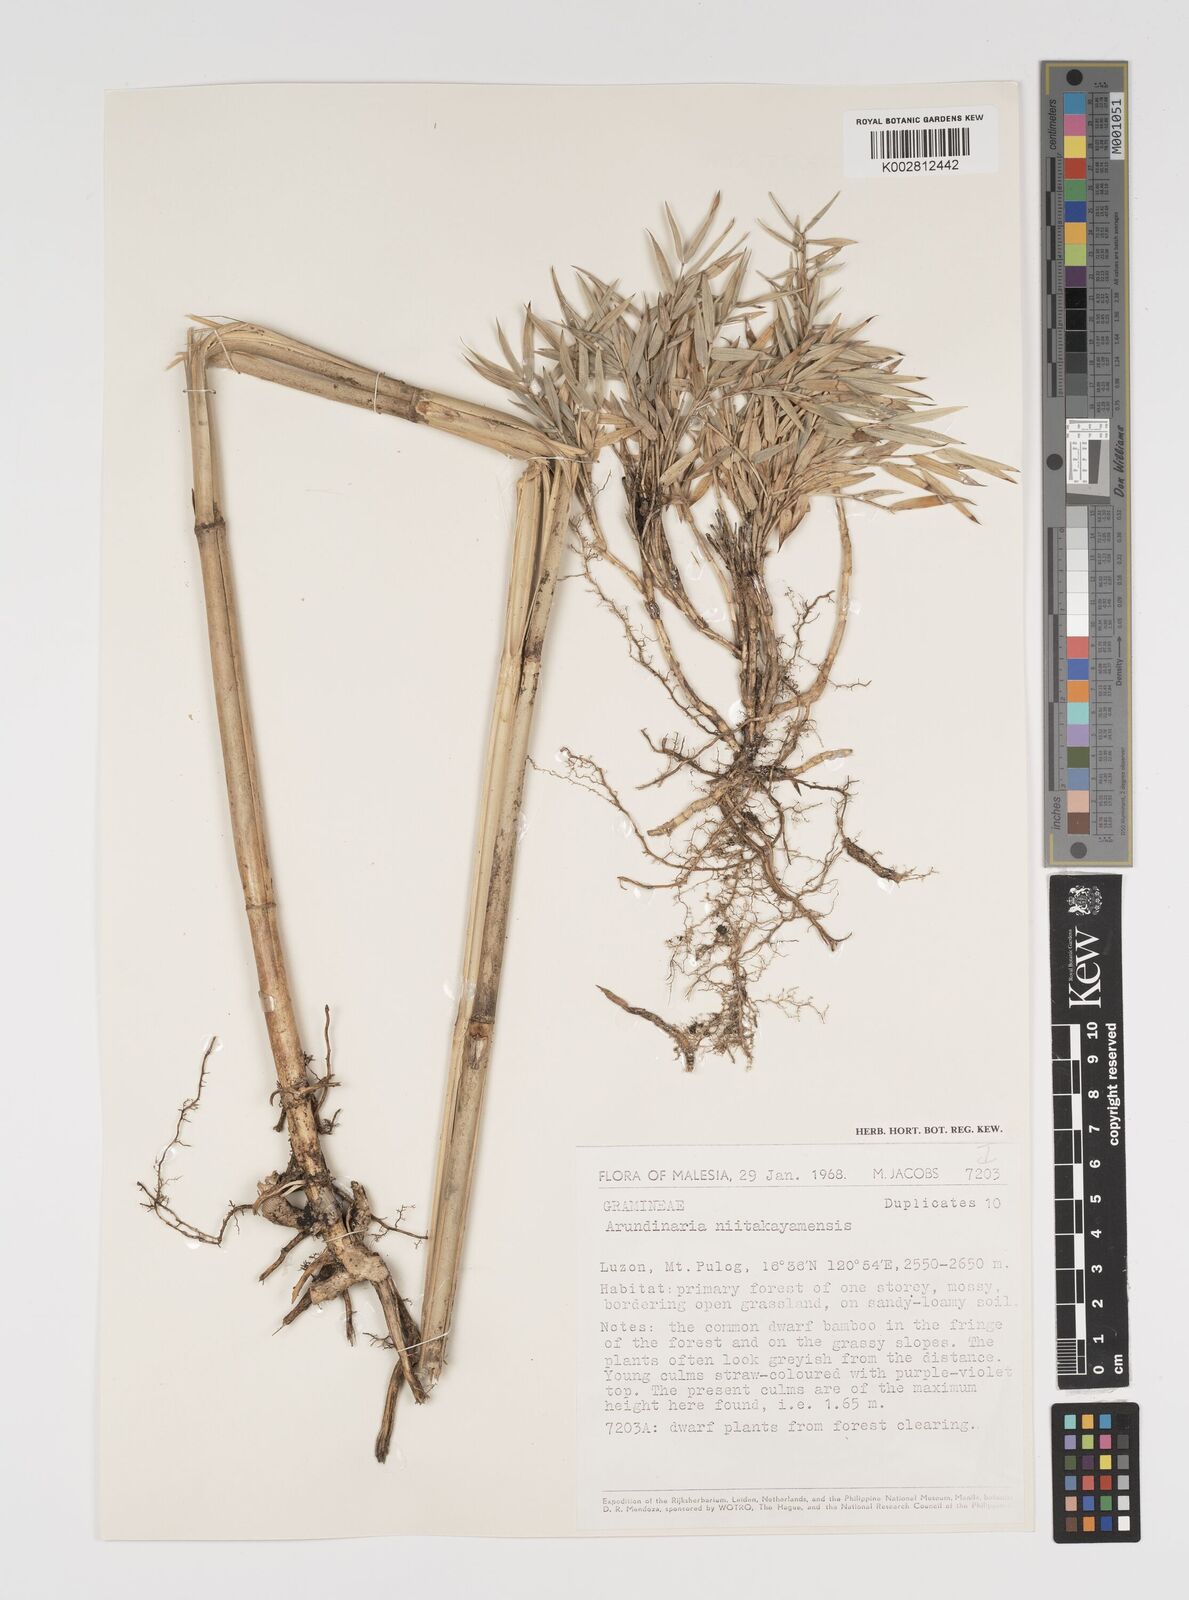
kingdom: Plantae
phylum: Tracheophyta
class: Liliopsida
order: Poales
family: Poaceae
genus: Yushania
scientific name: Yushania niitakayamensis
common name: Yushan cane
